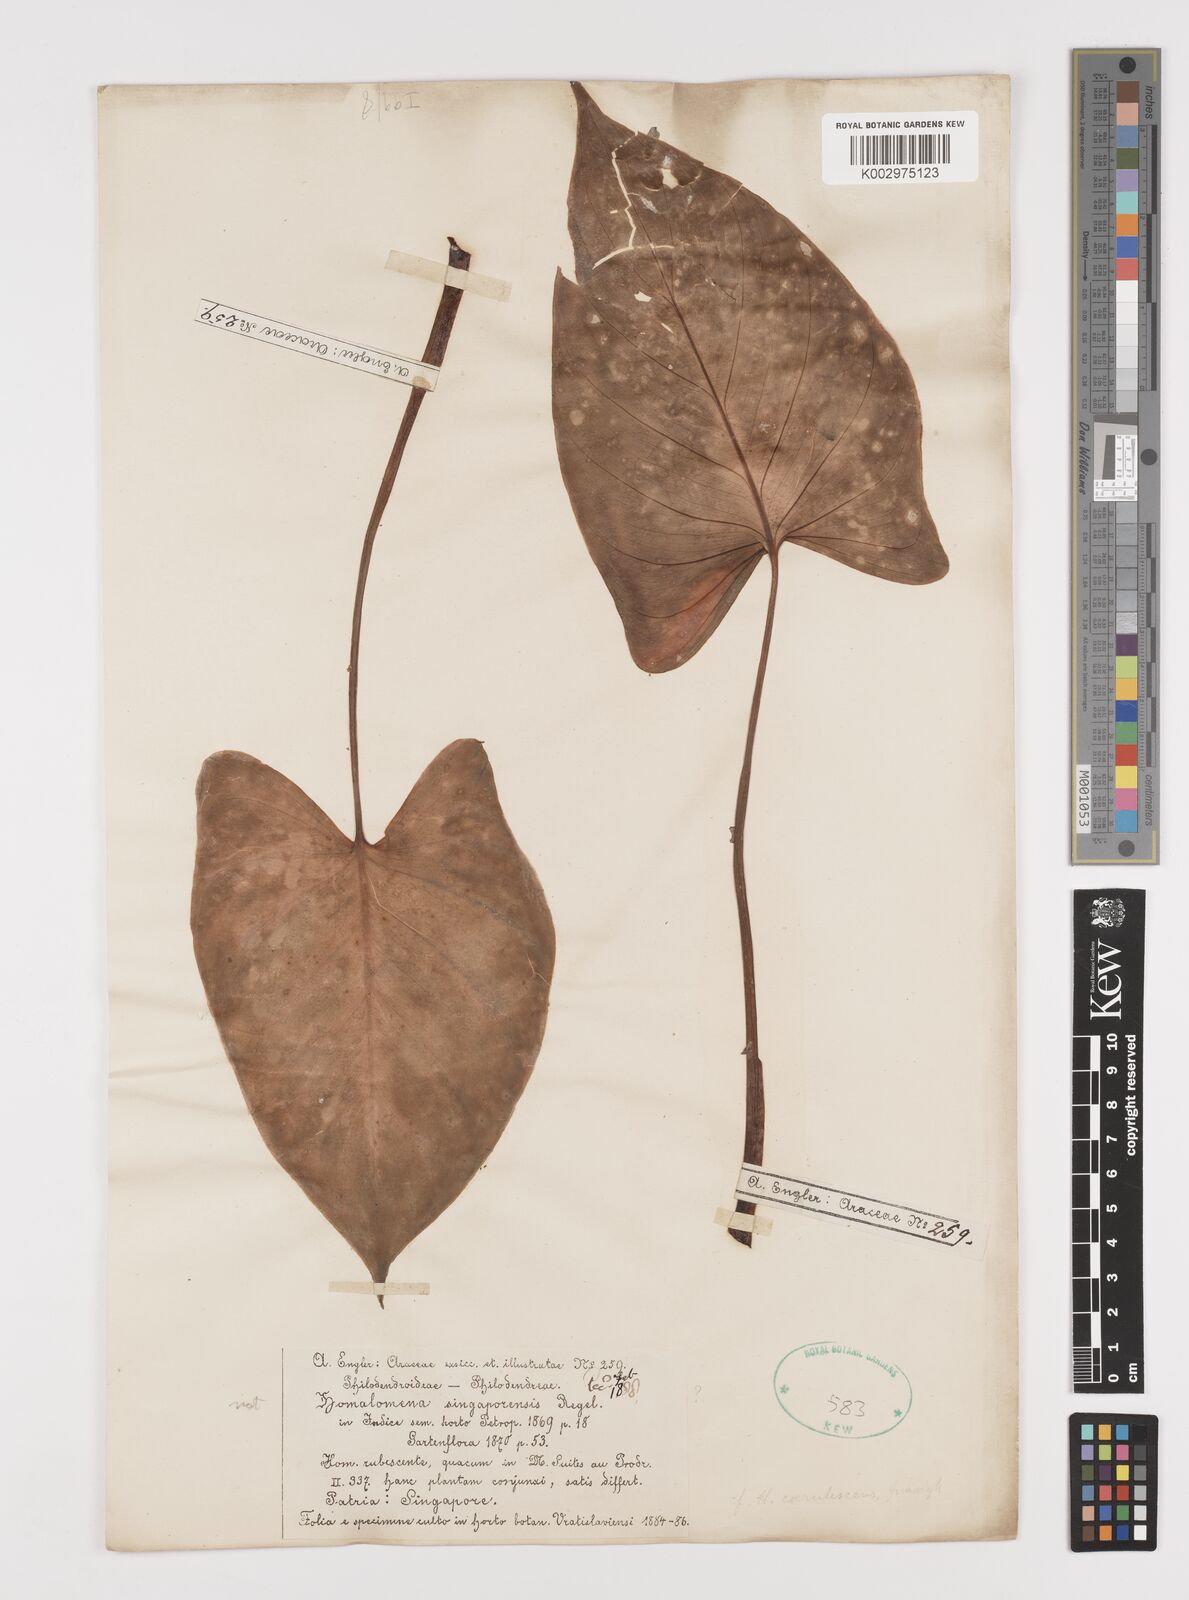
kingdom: Plantae
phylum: Tracheophyta
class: Liliopsida
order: Alismatales
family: Araceae
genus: Homalomena
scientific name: Homalomena pendula
